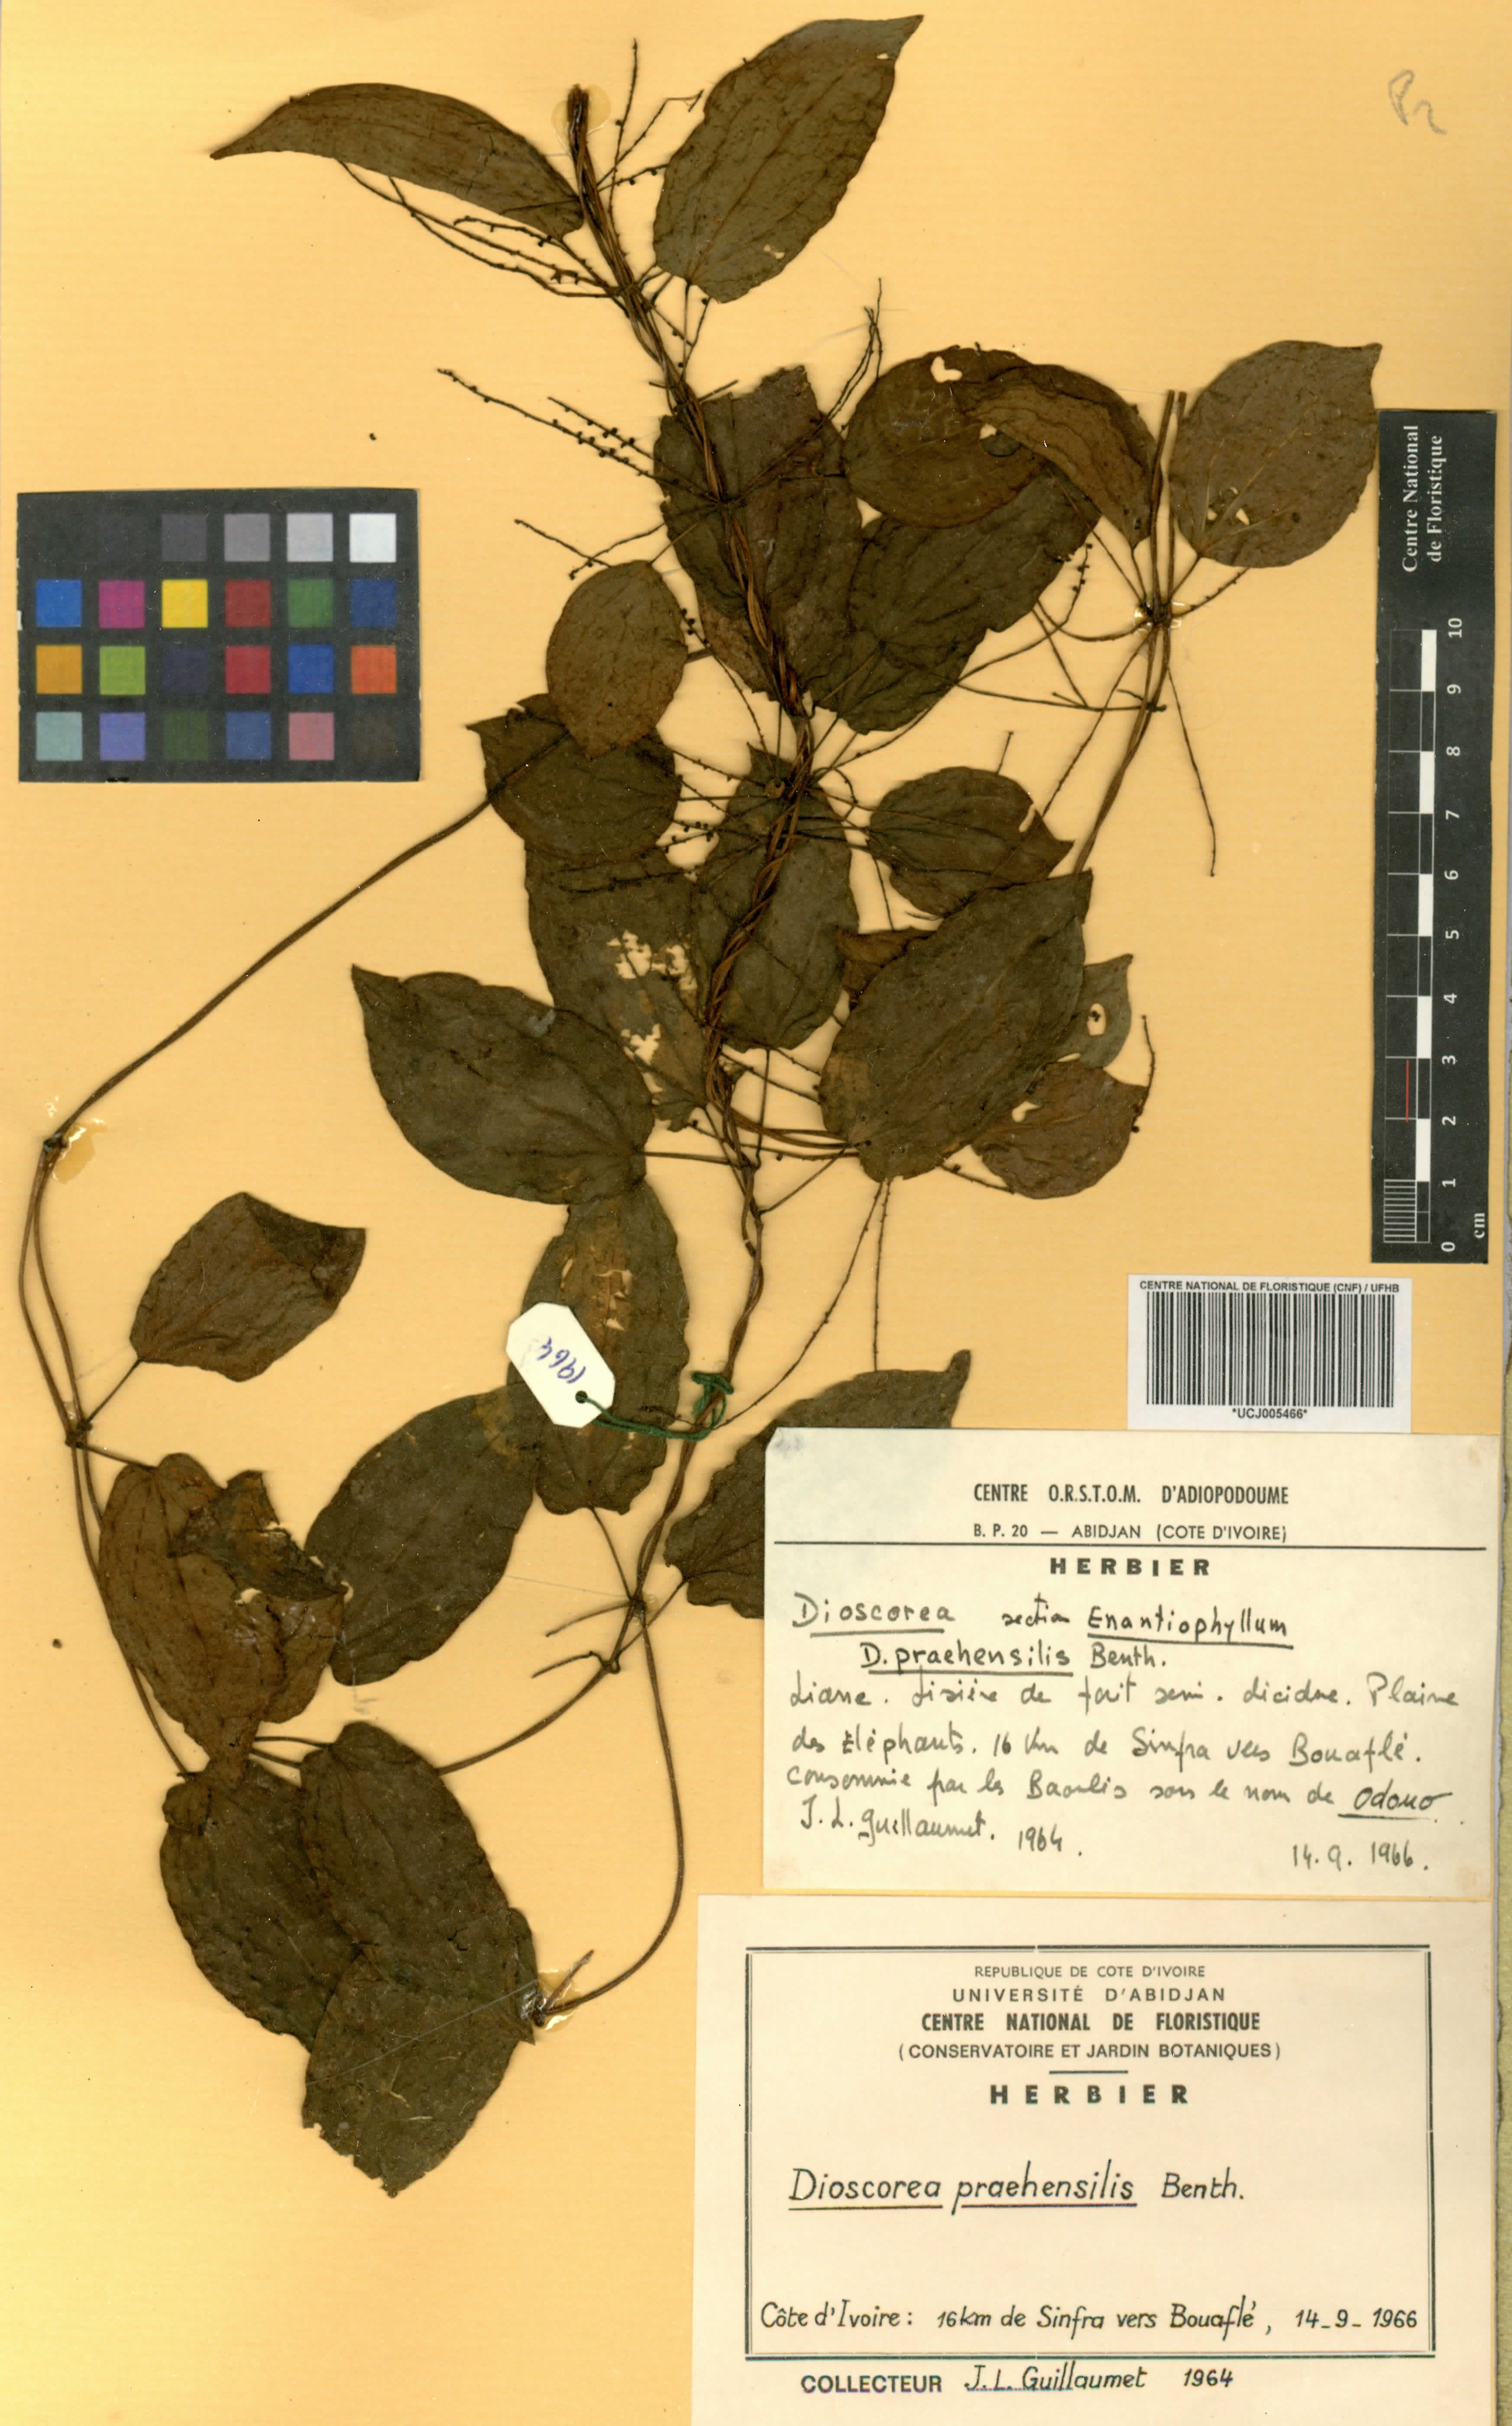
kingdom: Plantae
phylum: Tracheophyta
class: Liliopsida
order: Dioscoreales
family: Dioscoreaceae
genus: Dioscorea
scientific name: Dioscorea praehensilis
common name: Bush yam
